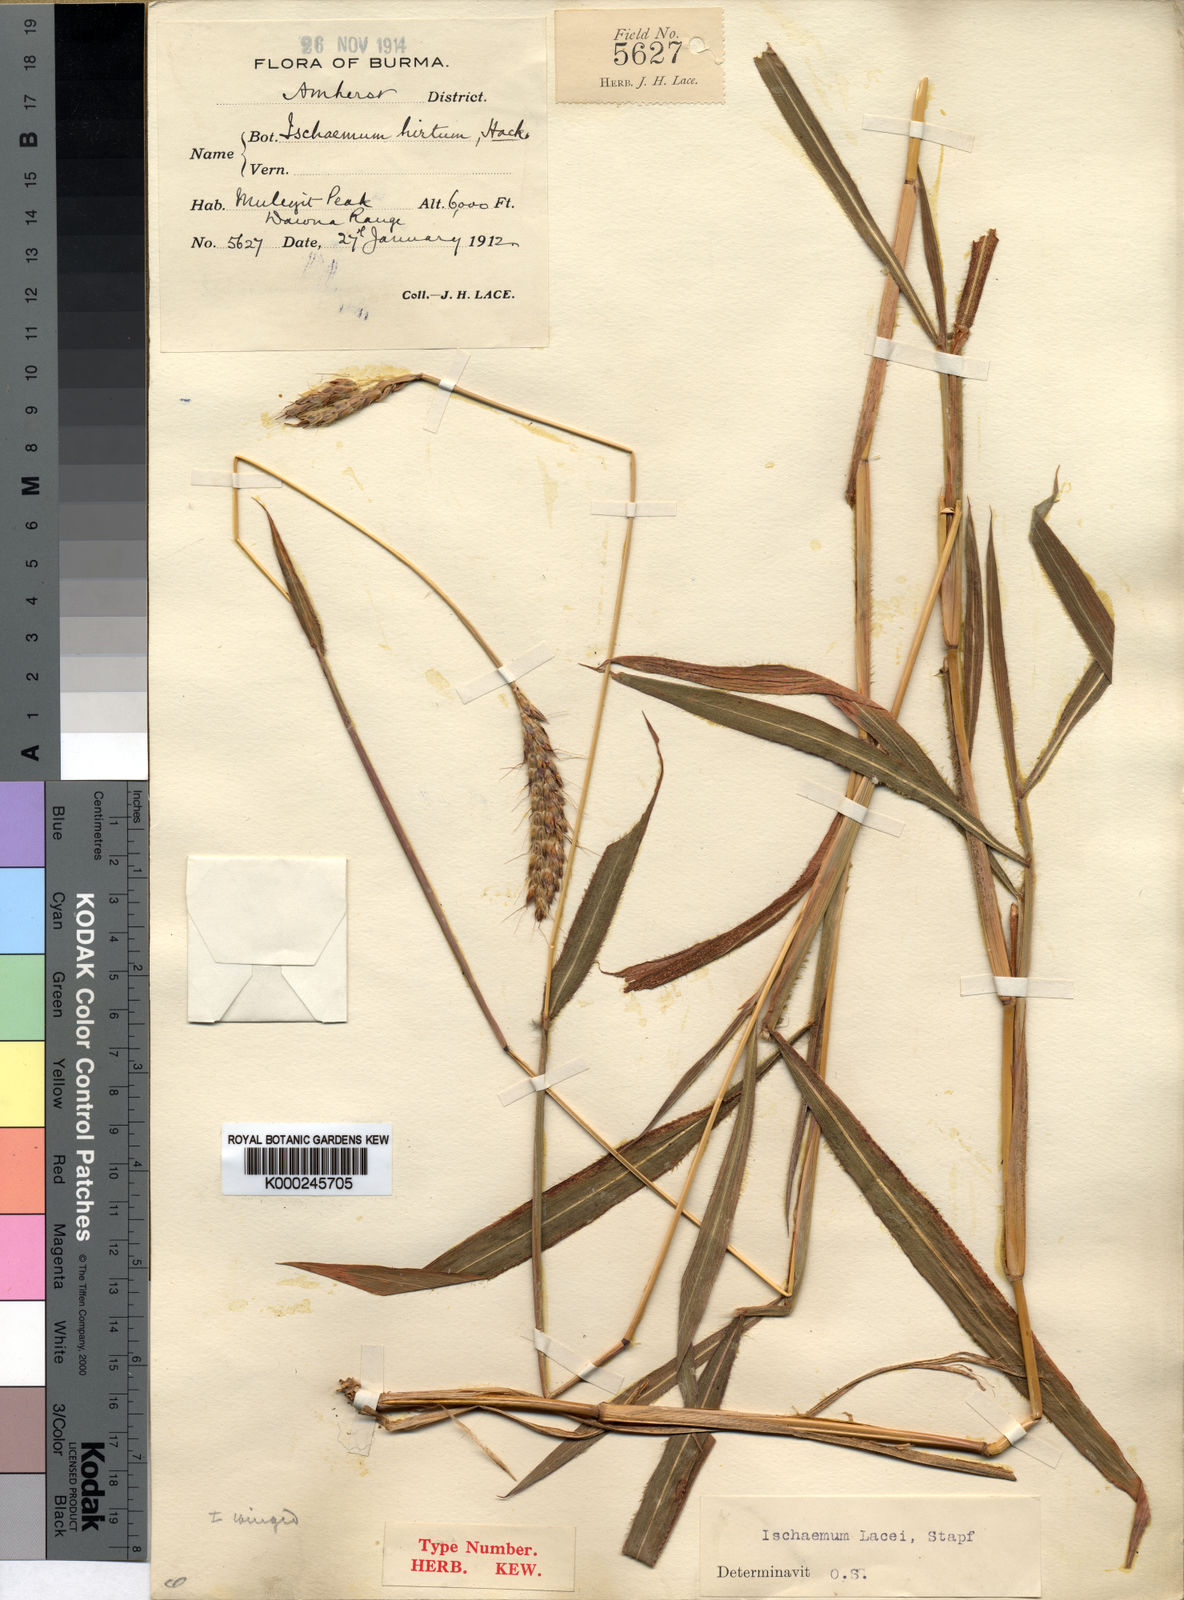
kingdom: Plantae
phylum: Tracheophyta
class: Liliopsida
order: Poales
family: Poaceae
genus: Ischaemum
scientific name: Ischaemum polystachyum
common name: Paddle grass
